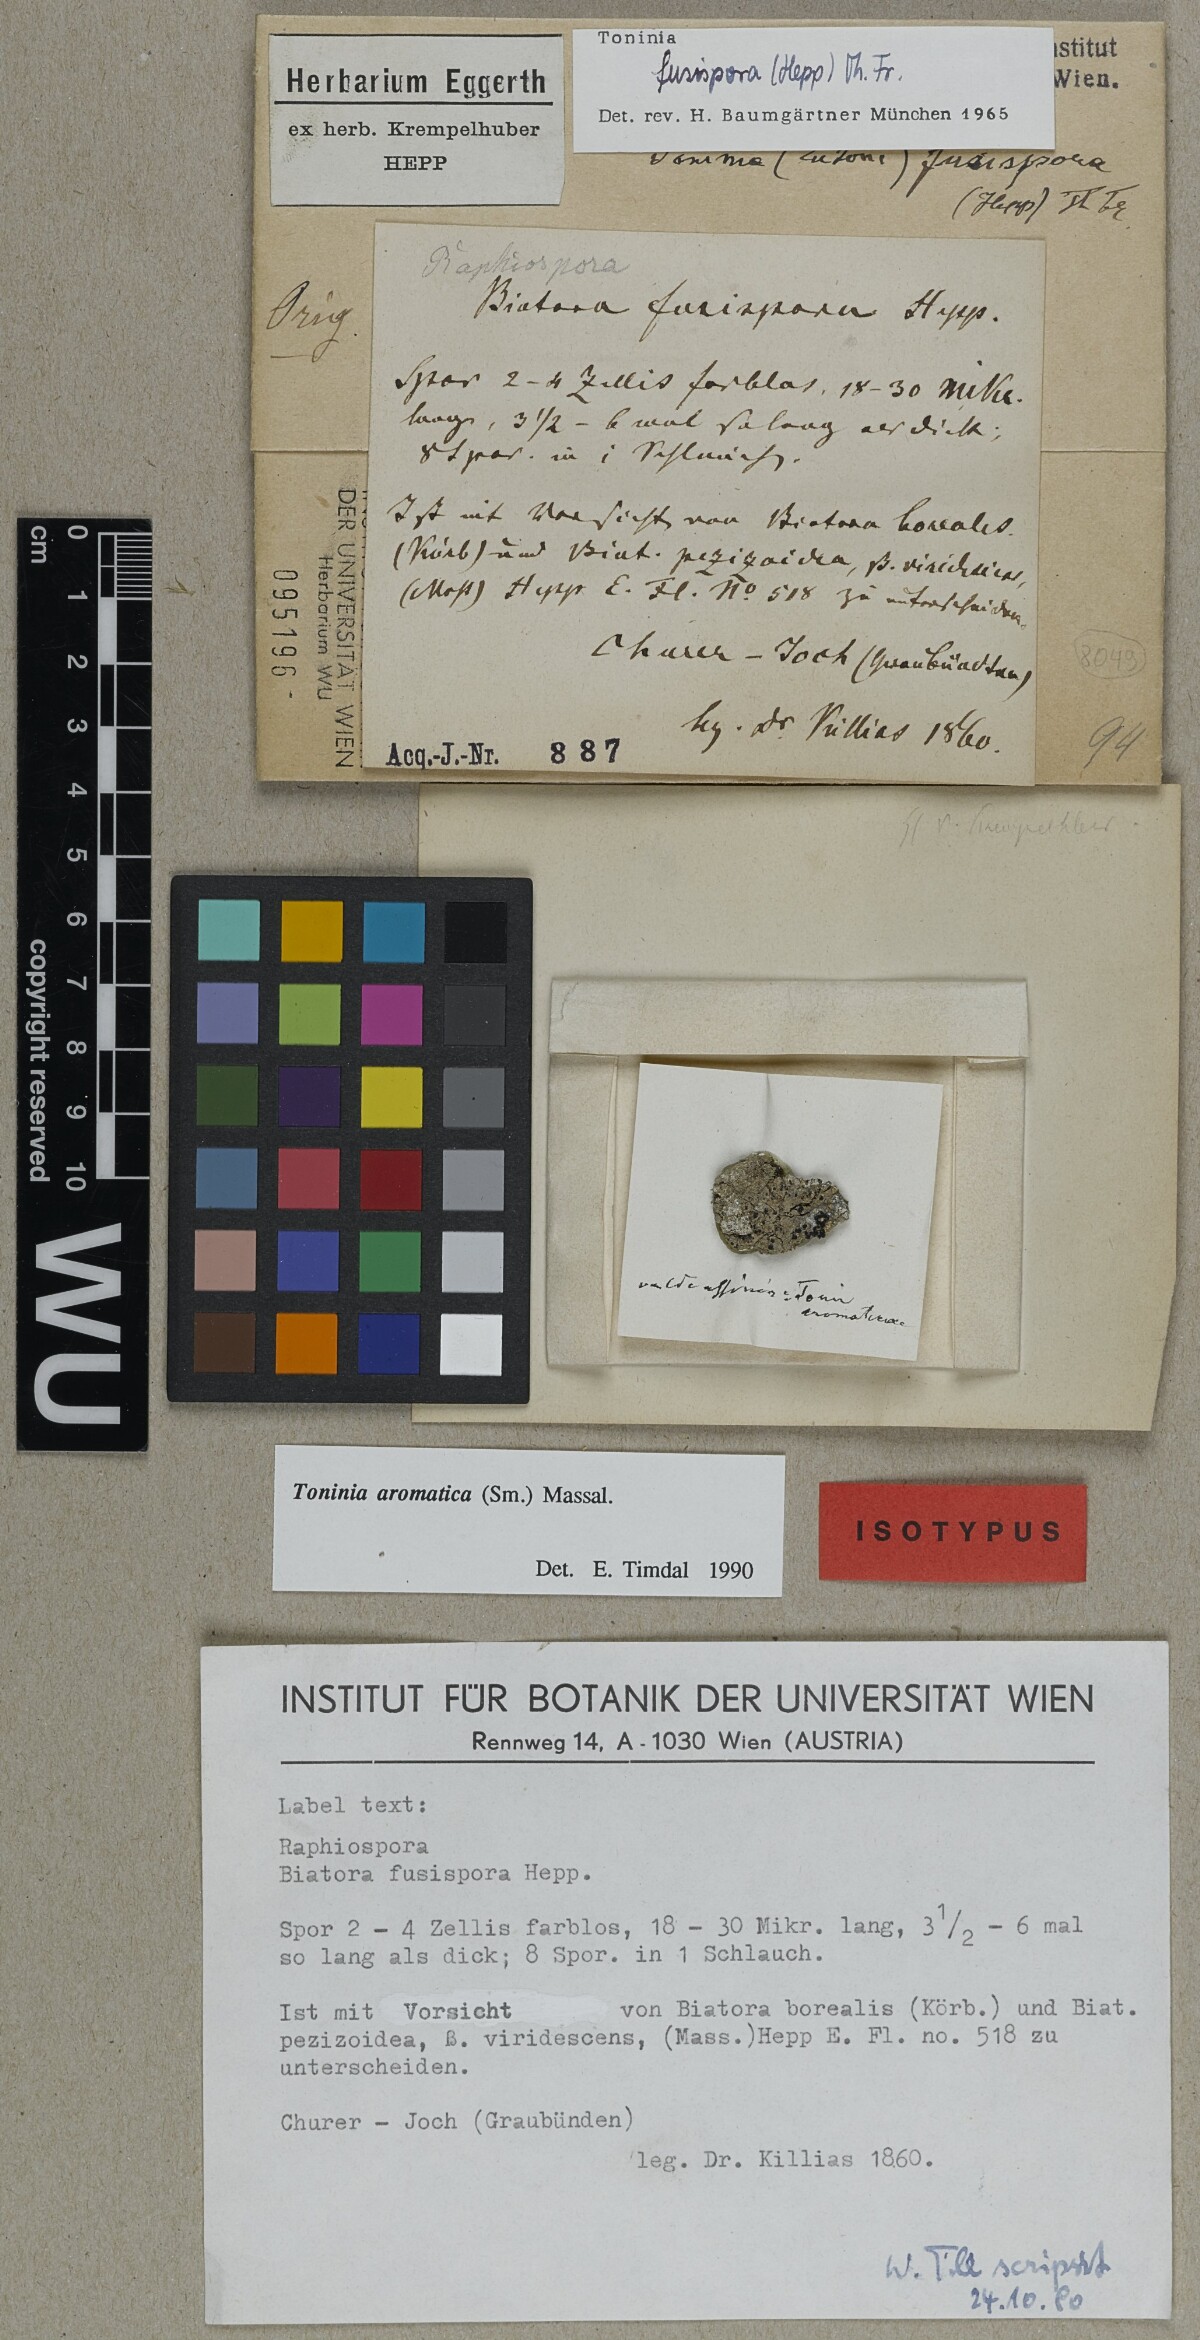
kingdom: Fungi
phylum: Ascomycota
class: Lecanoromycetes
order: Lecanorales
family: Ramalinaceae
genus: Biatora
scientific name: Biatora
